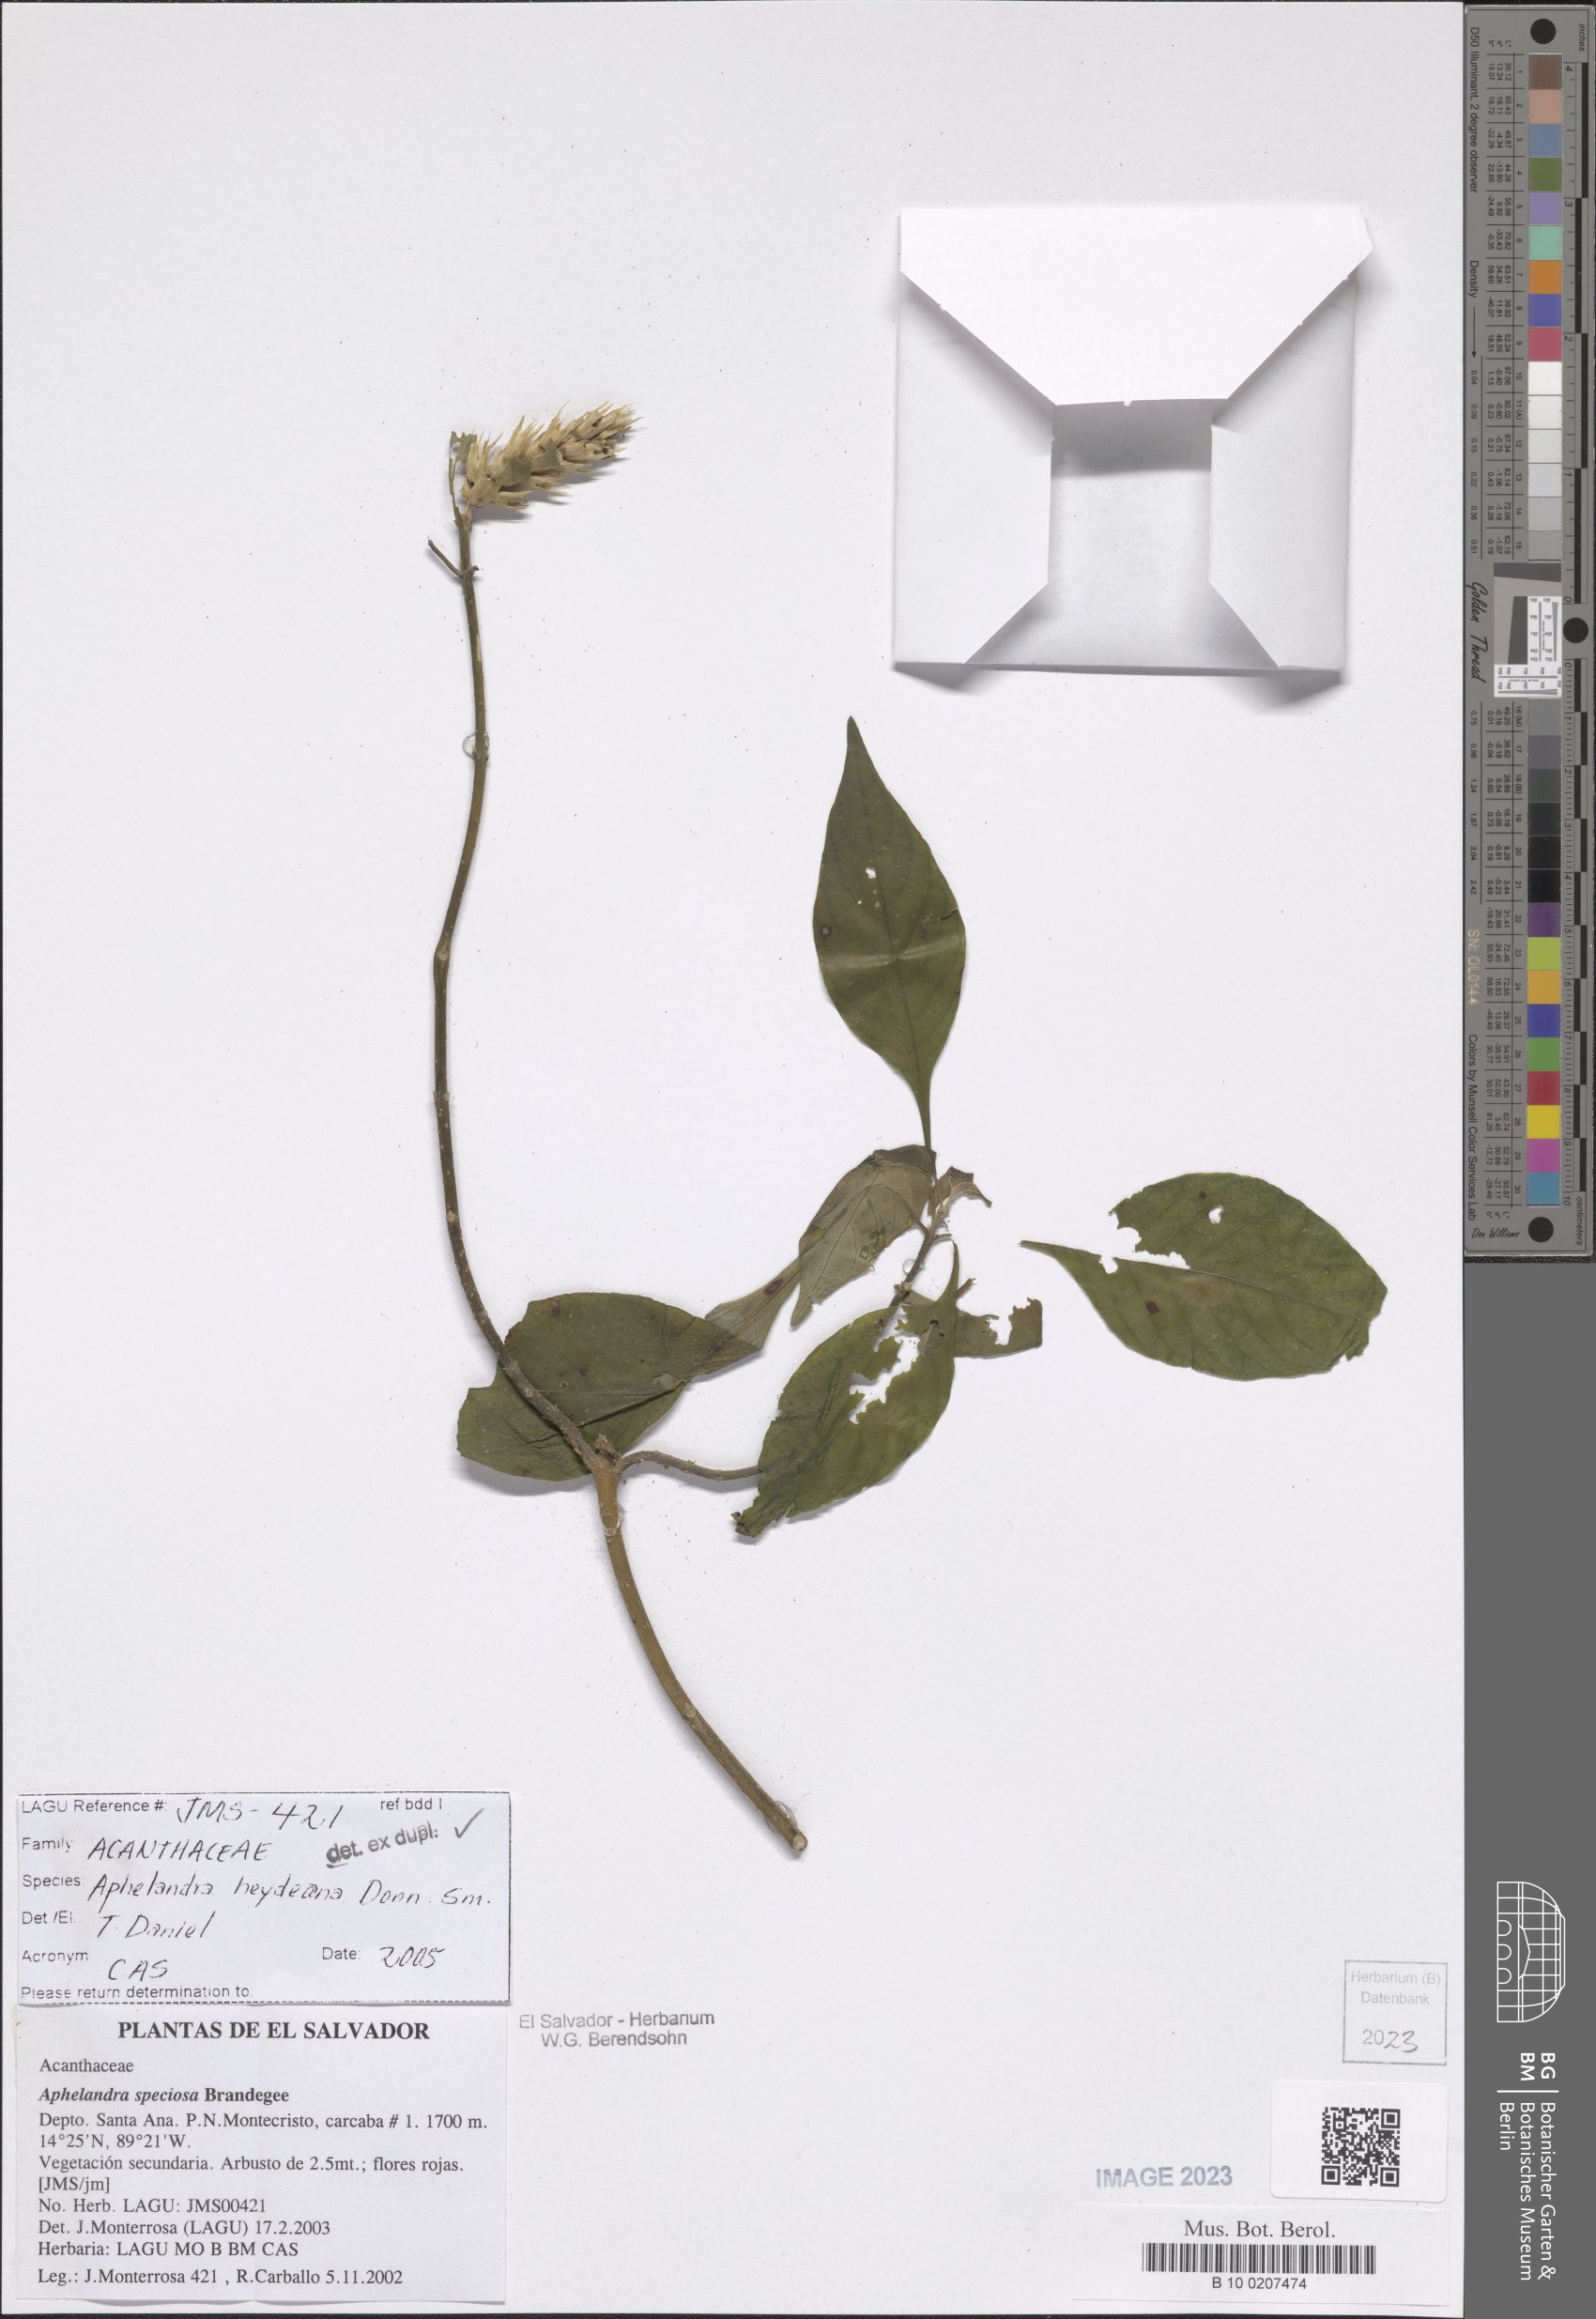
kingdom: Plantae
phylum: Tracheophyta
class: Magnoliopsida
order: Lamiales
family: Acanthaceae
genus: Aphelandra
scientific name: Aphelandra heydeana
